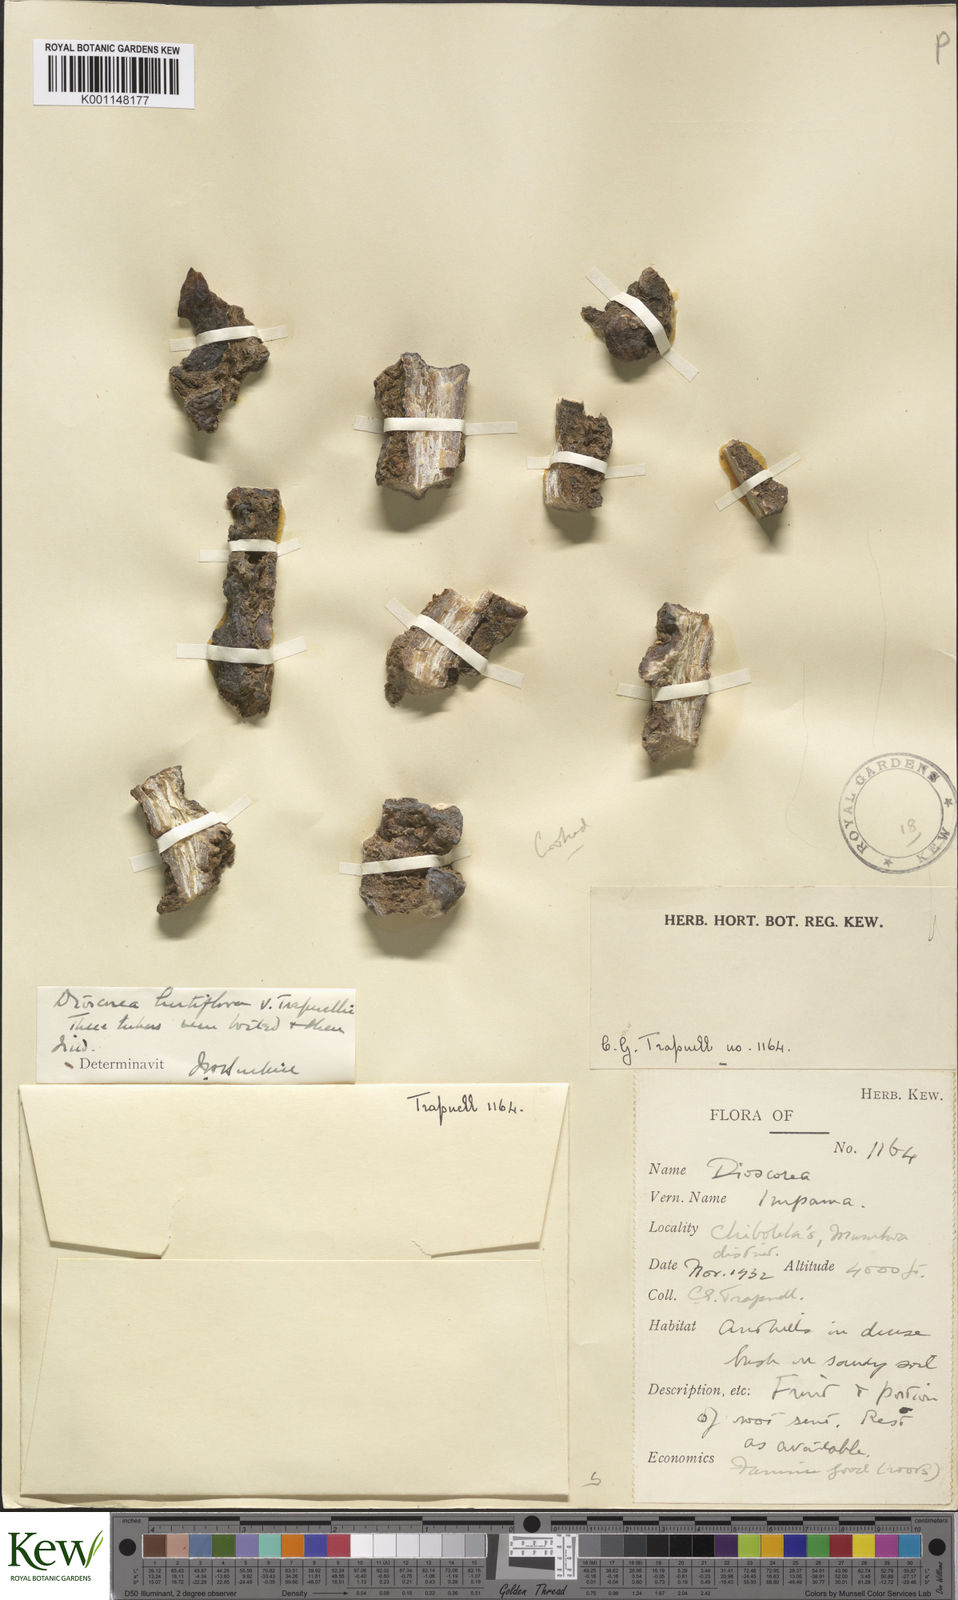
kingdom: Plantae
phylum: Tracheophyta
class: Liliopsida
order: Dioscoreales
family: Dioscoreaceae
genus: Dioscorea
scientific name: Dioscorea hirtiflora
